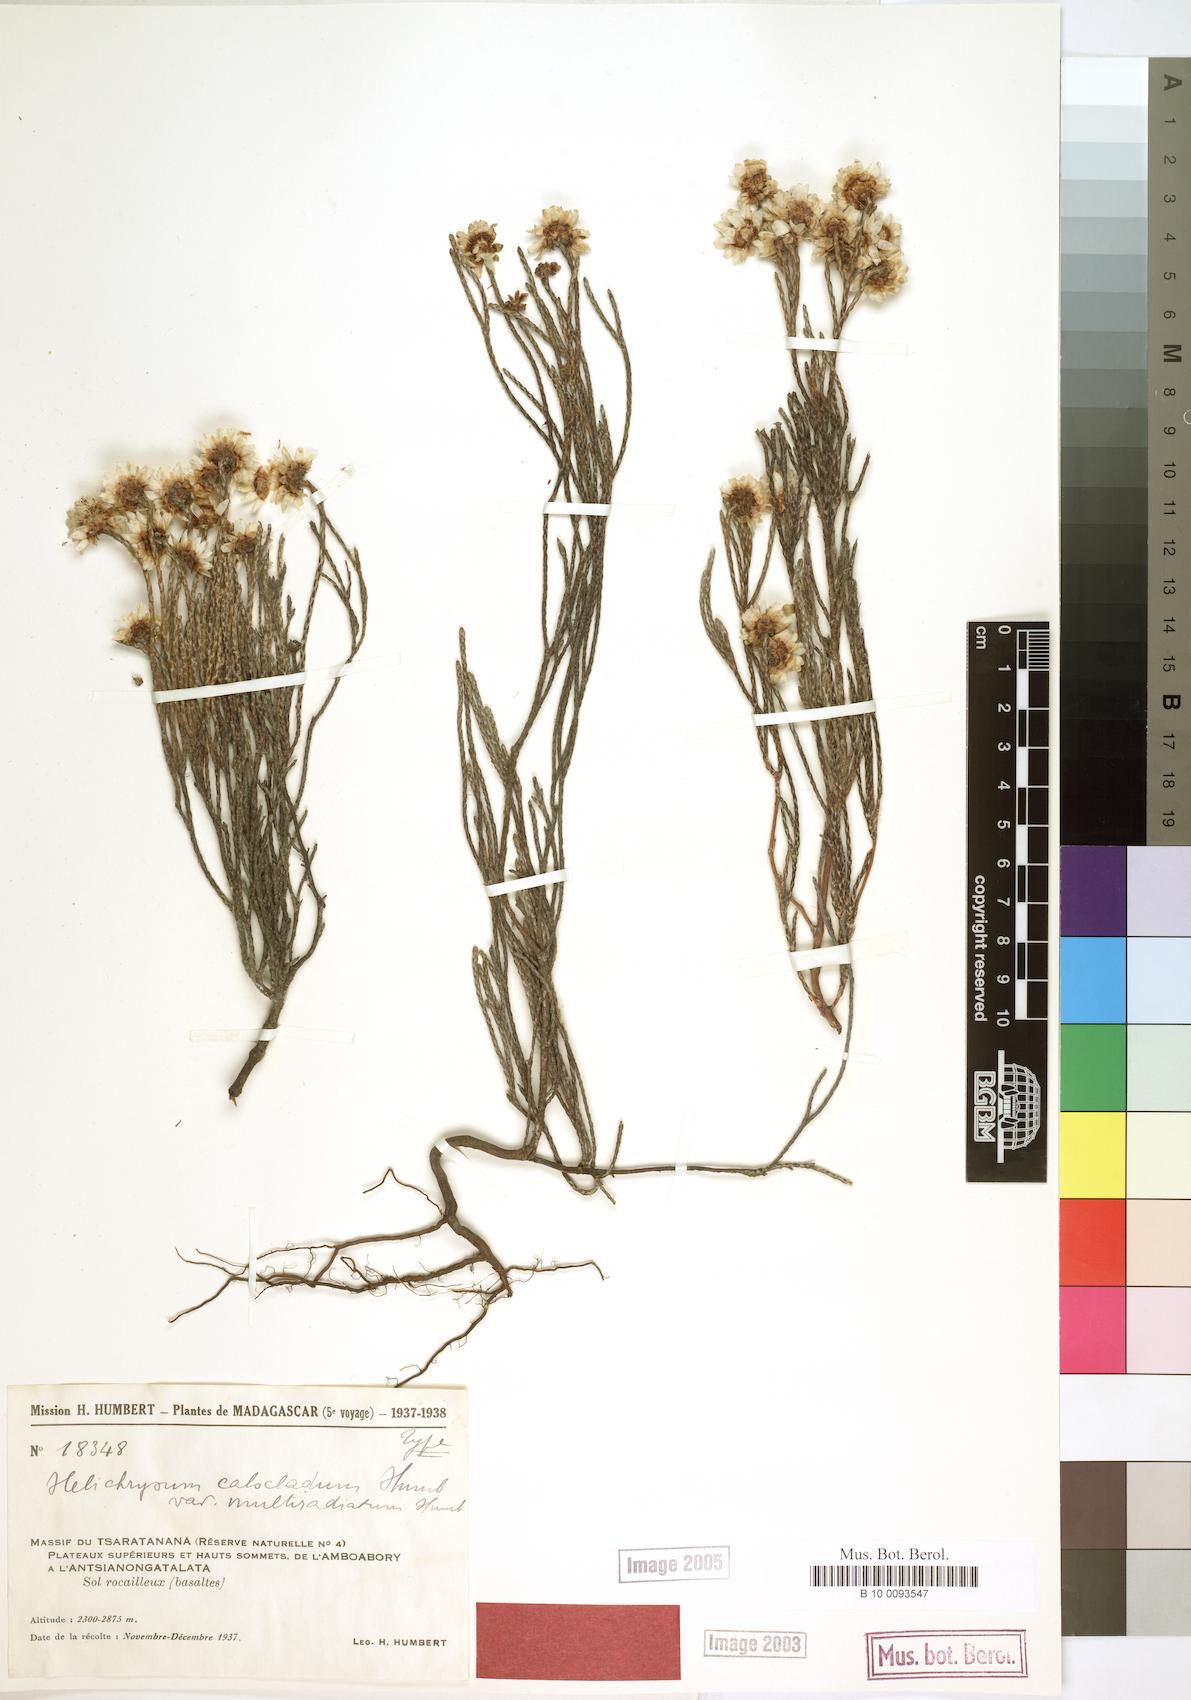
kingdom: Plantae
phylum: Tracheophyta
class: Magnoliopsida
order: Asterales
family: Asteraceae
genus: Helichrysum
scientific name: Helichrysum calocladum
